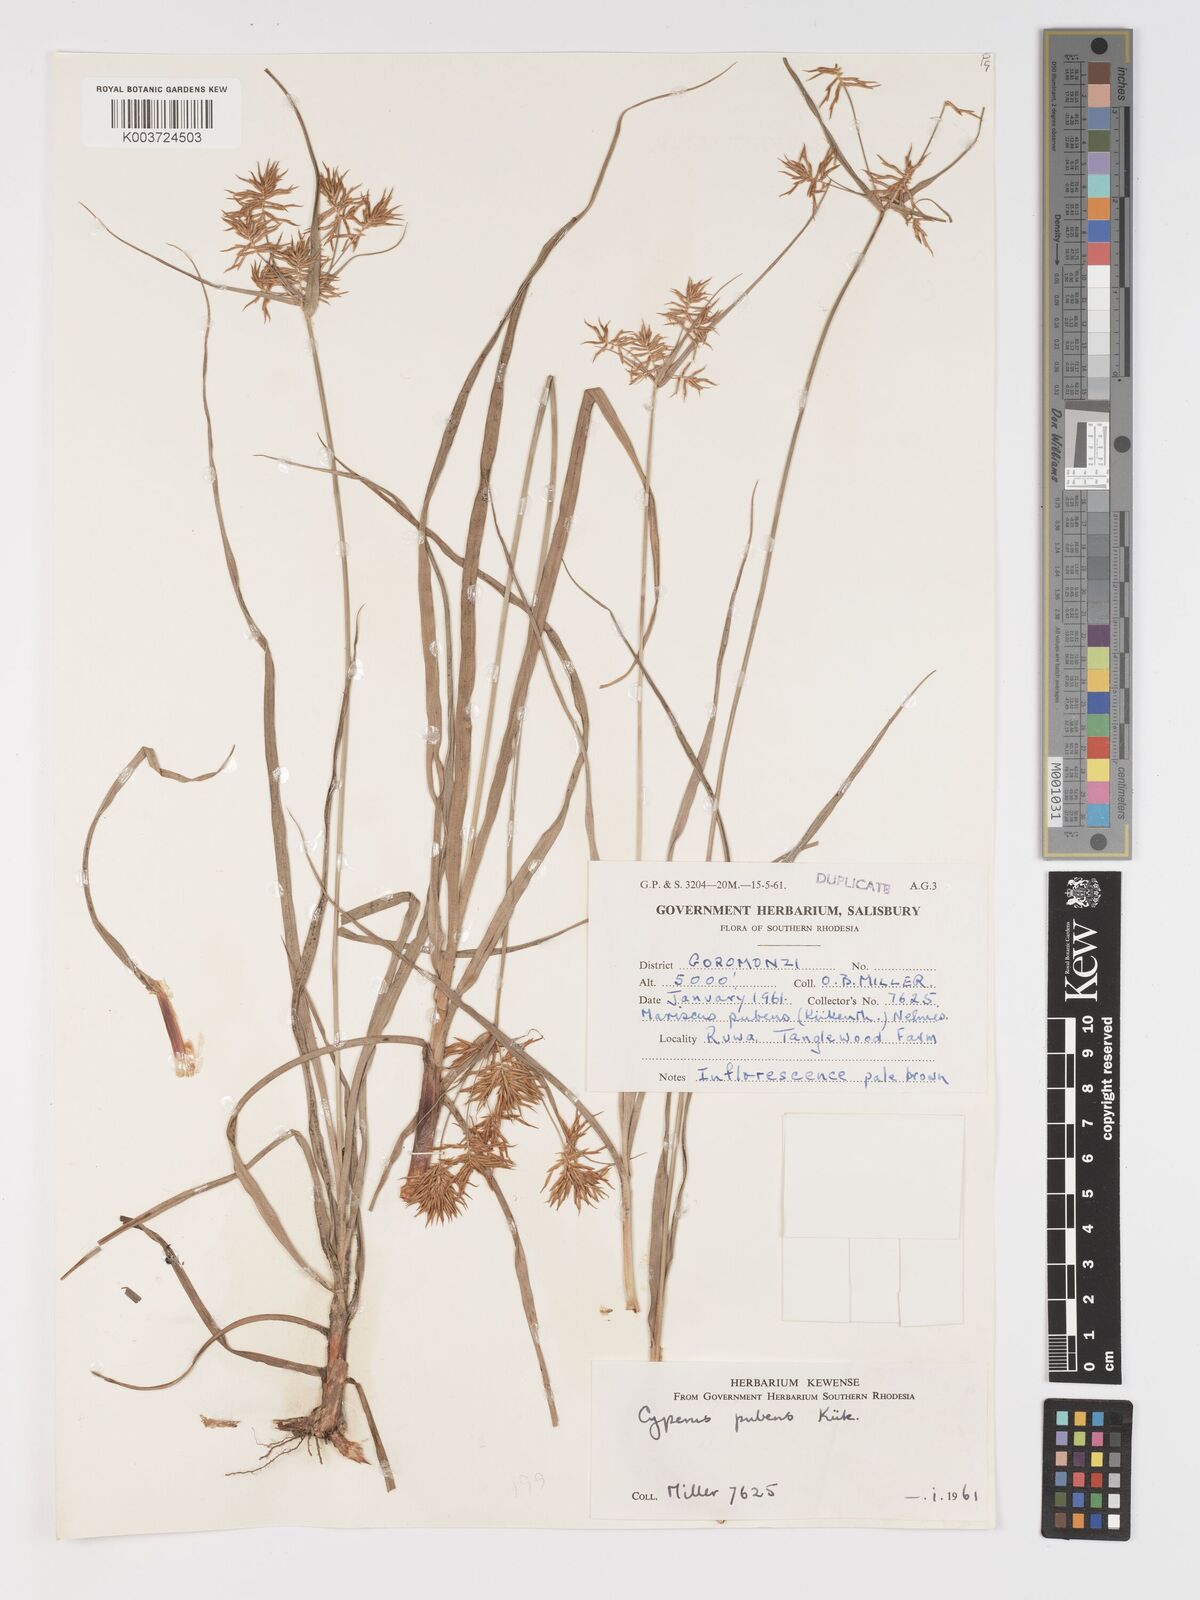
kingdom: Plantae
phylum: Tracheophyta
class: Liliopsida
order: Poales
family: Cyperaceae
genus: Cyperus
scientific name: Cyperus pubens
